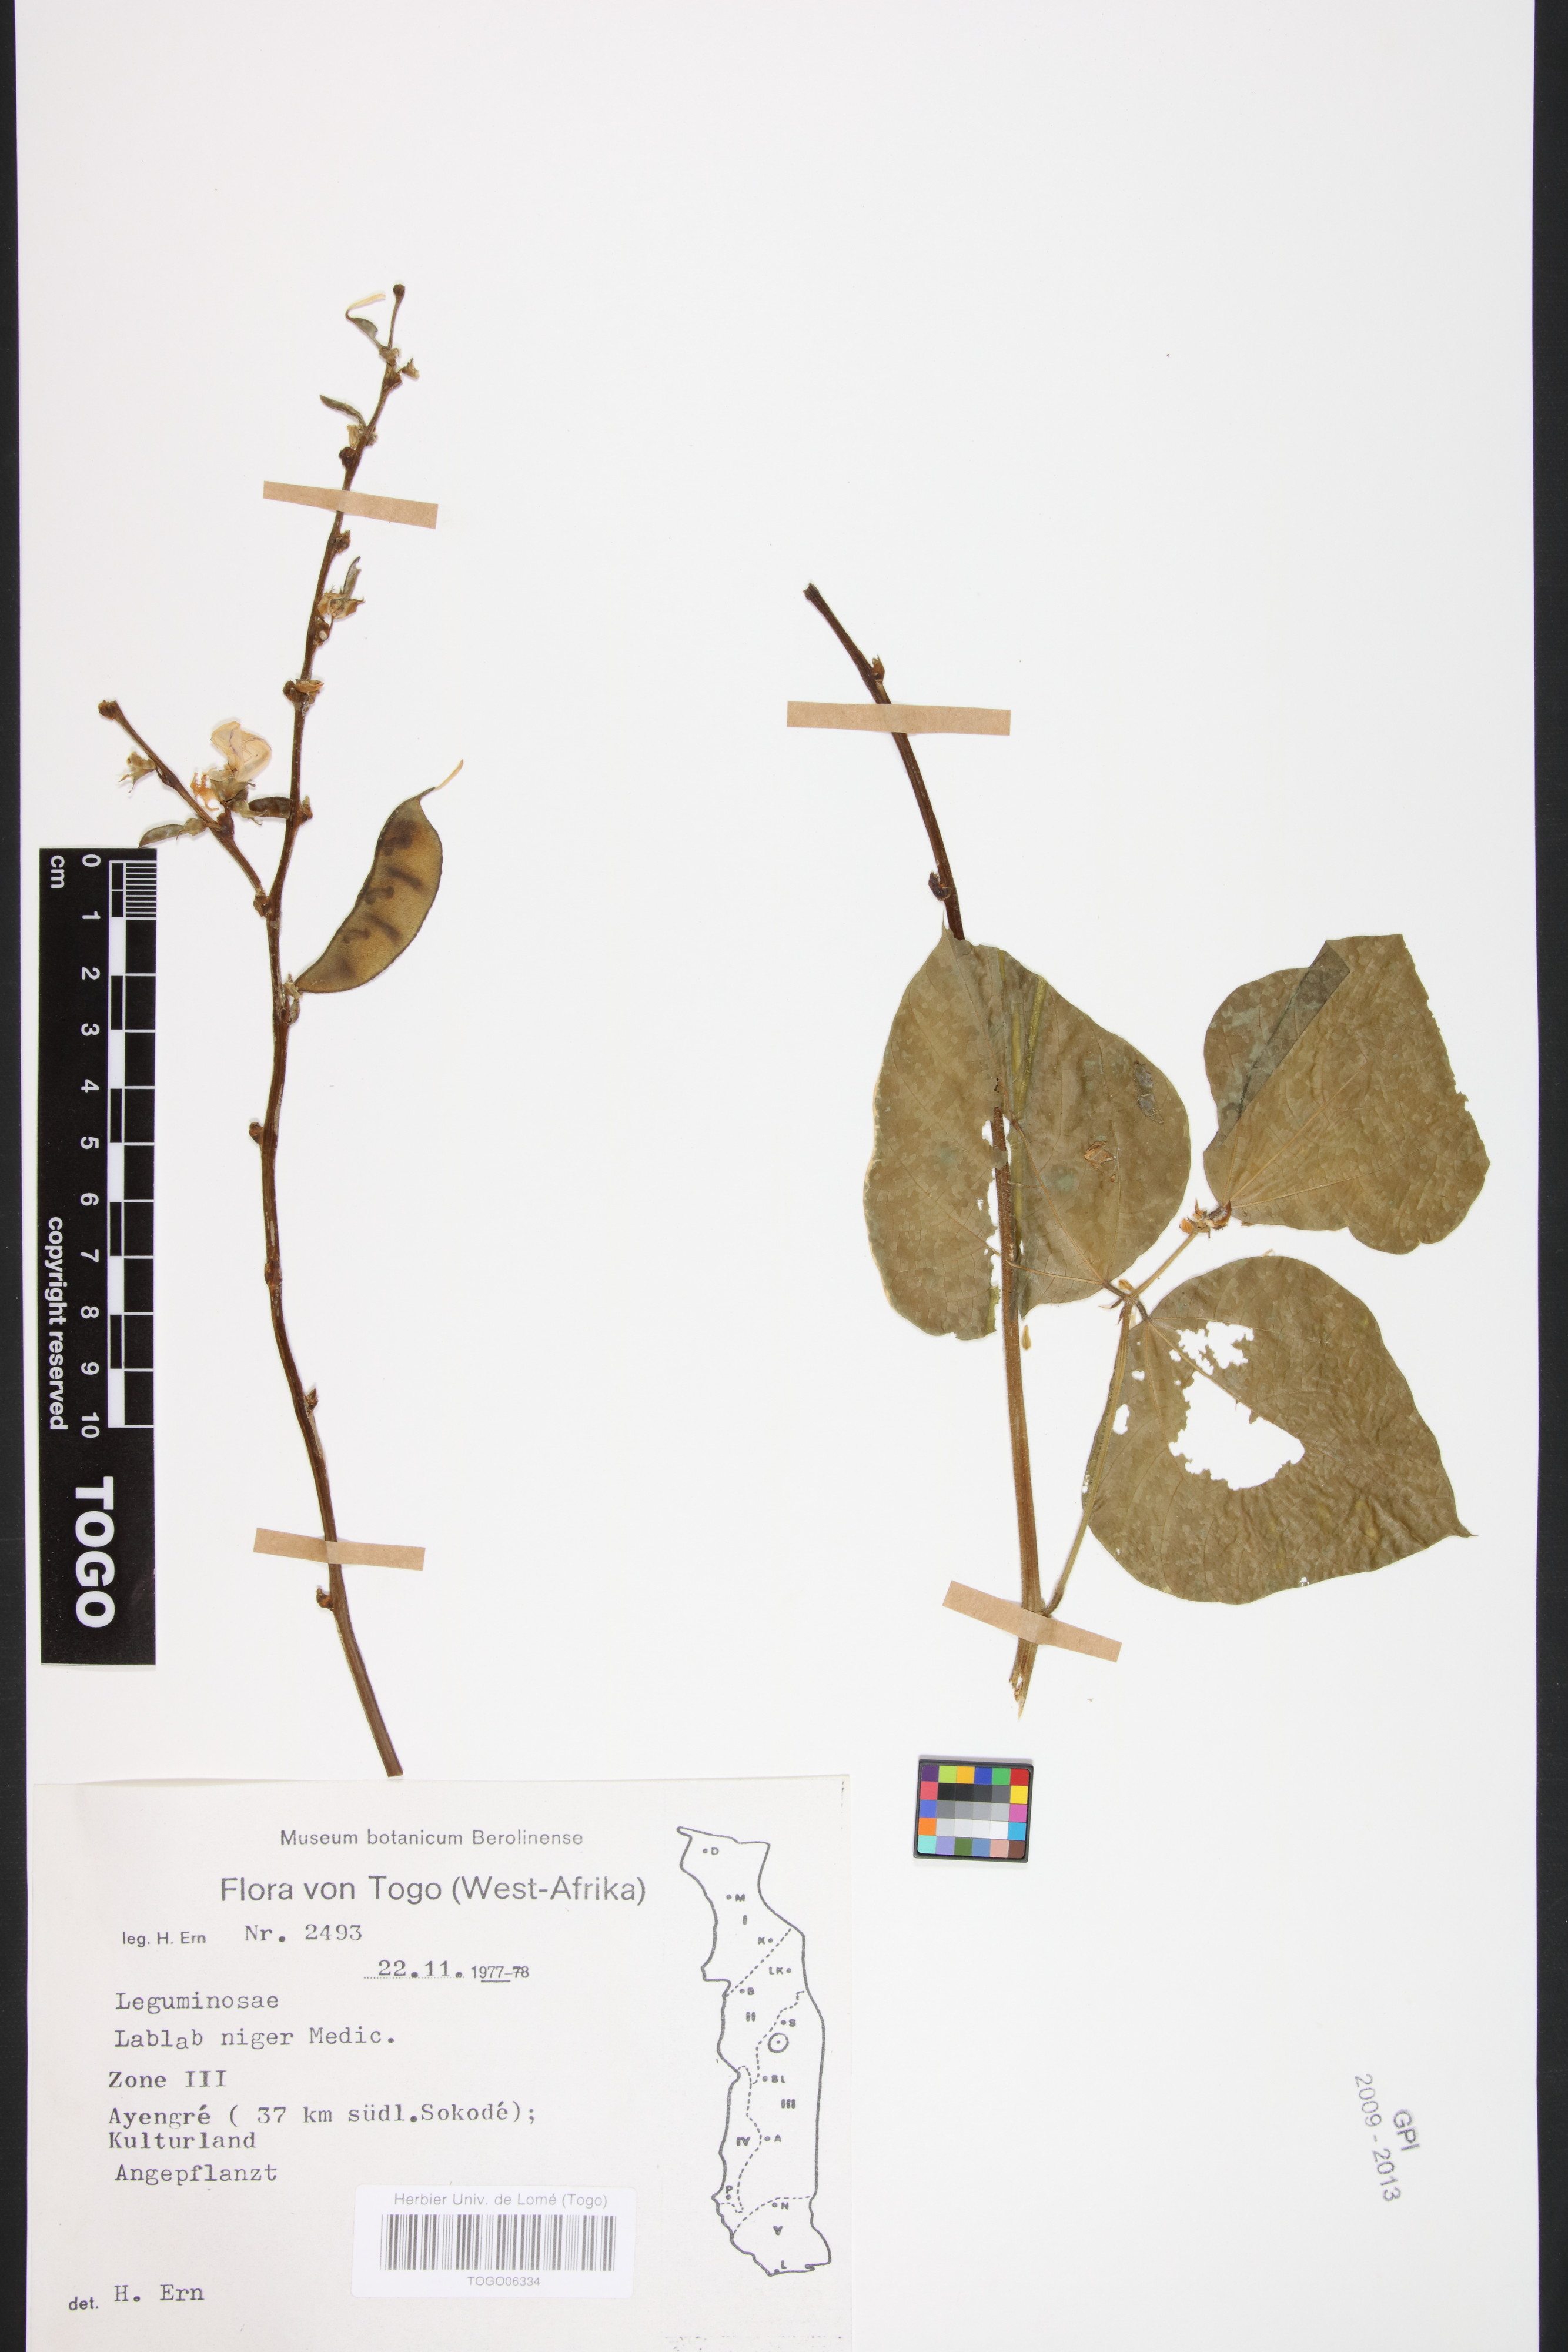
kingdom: Plantae
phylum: Tracheophyta
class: Magnoliopsida
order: Fabales
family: Fabaceae
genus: Lablab
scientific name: Lablab purpureus
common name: Lablab-bean
